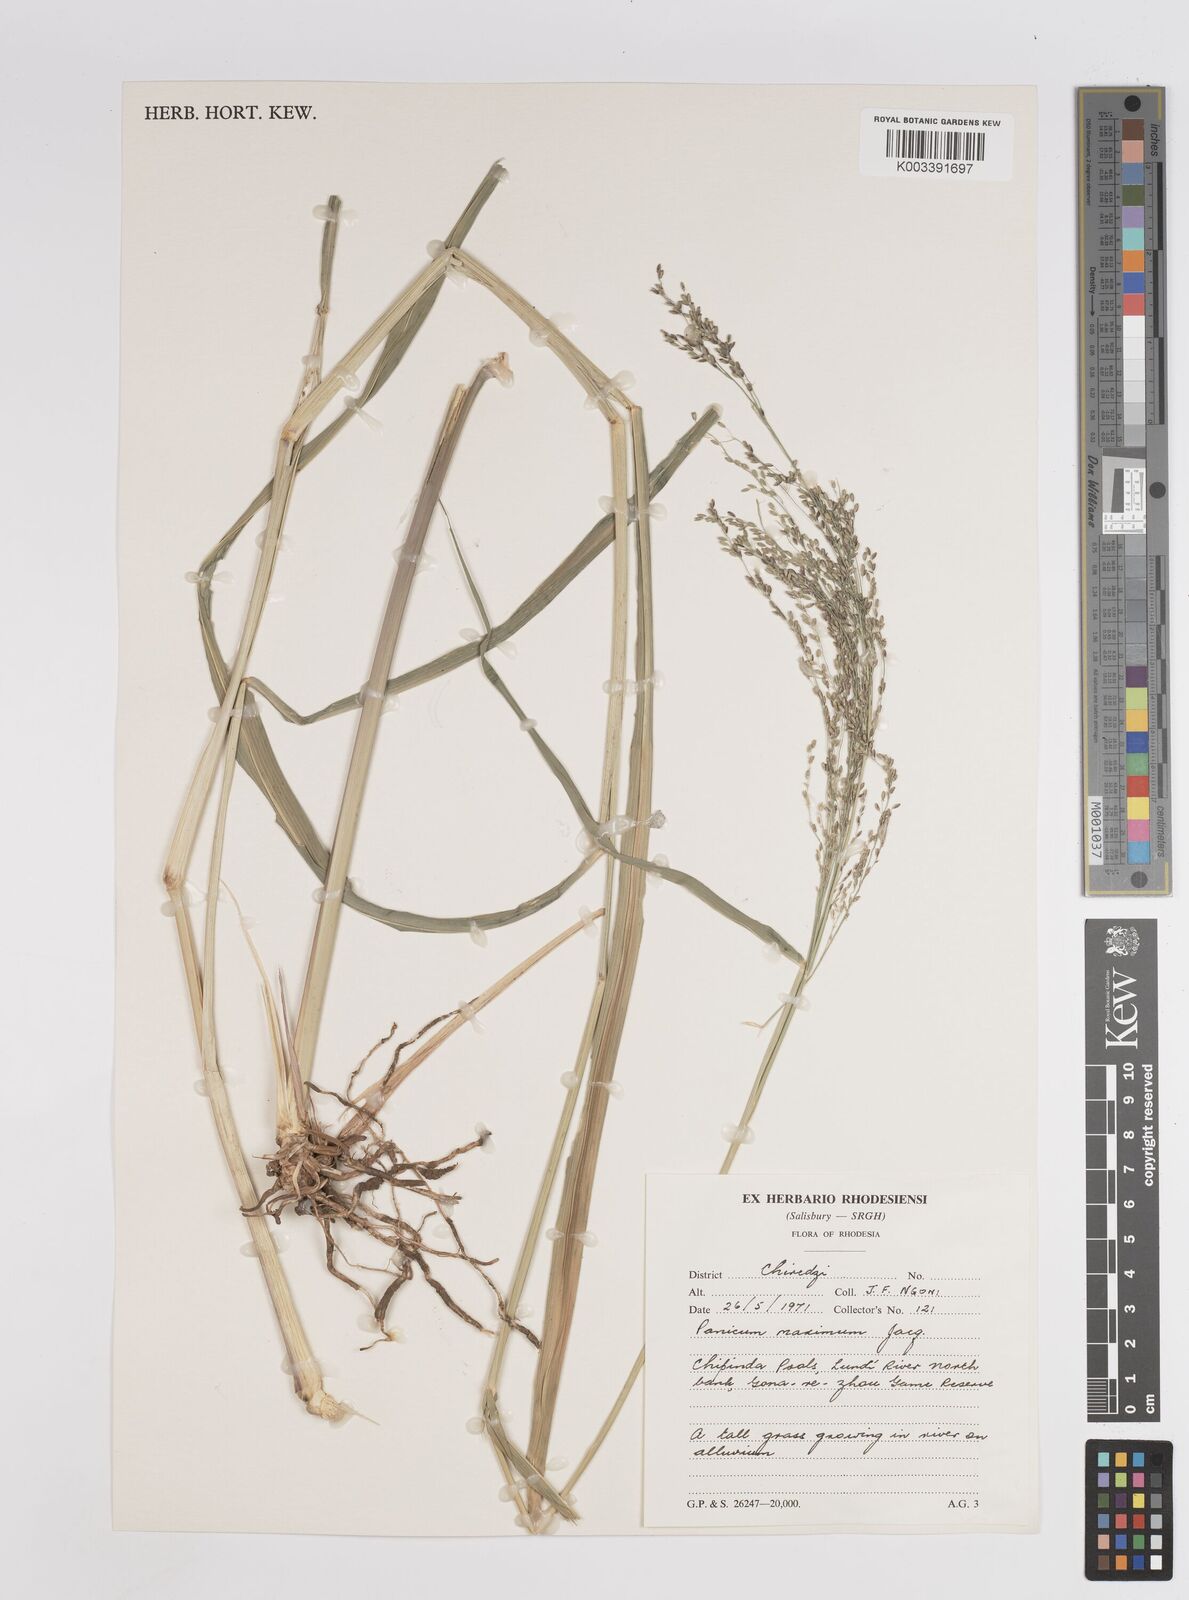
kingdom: Plantae
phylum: Tracheophyta
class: Liliopsida
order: Poales
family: Poaceae
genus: Megathyrsus
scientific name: Megathyrsus maximus
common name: Guineagrass
